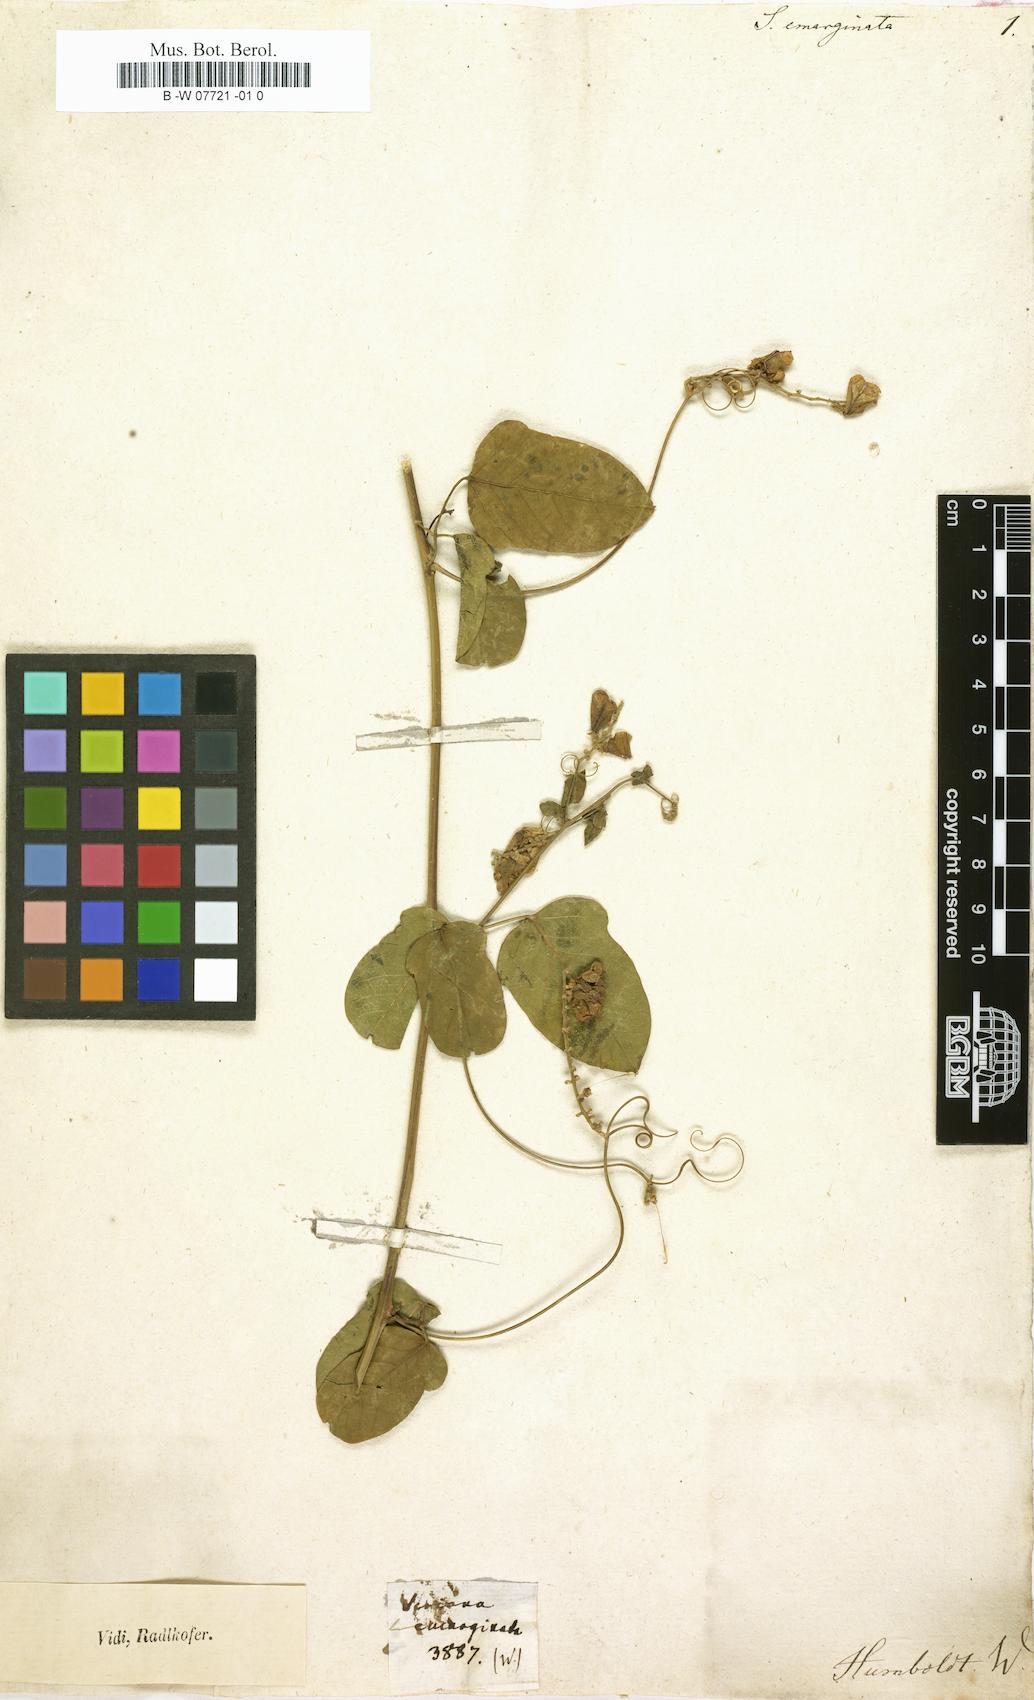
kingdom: Plantae
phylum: Tracheophyta
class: Magnoliopsida
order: Sapindales
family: Sapindaceae
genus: Serjania
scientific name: Serjania emarginata
